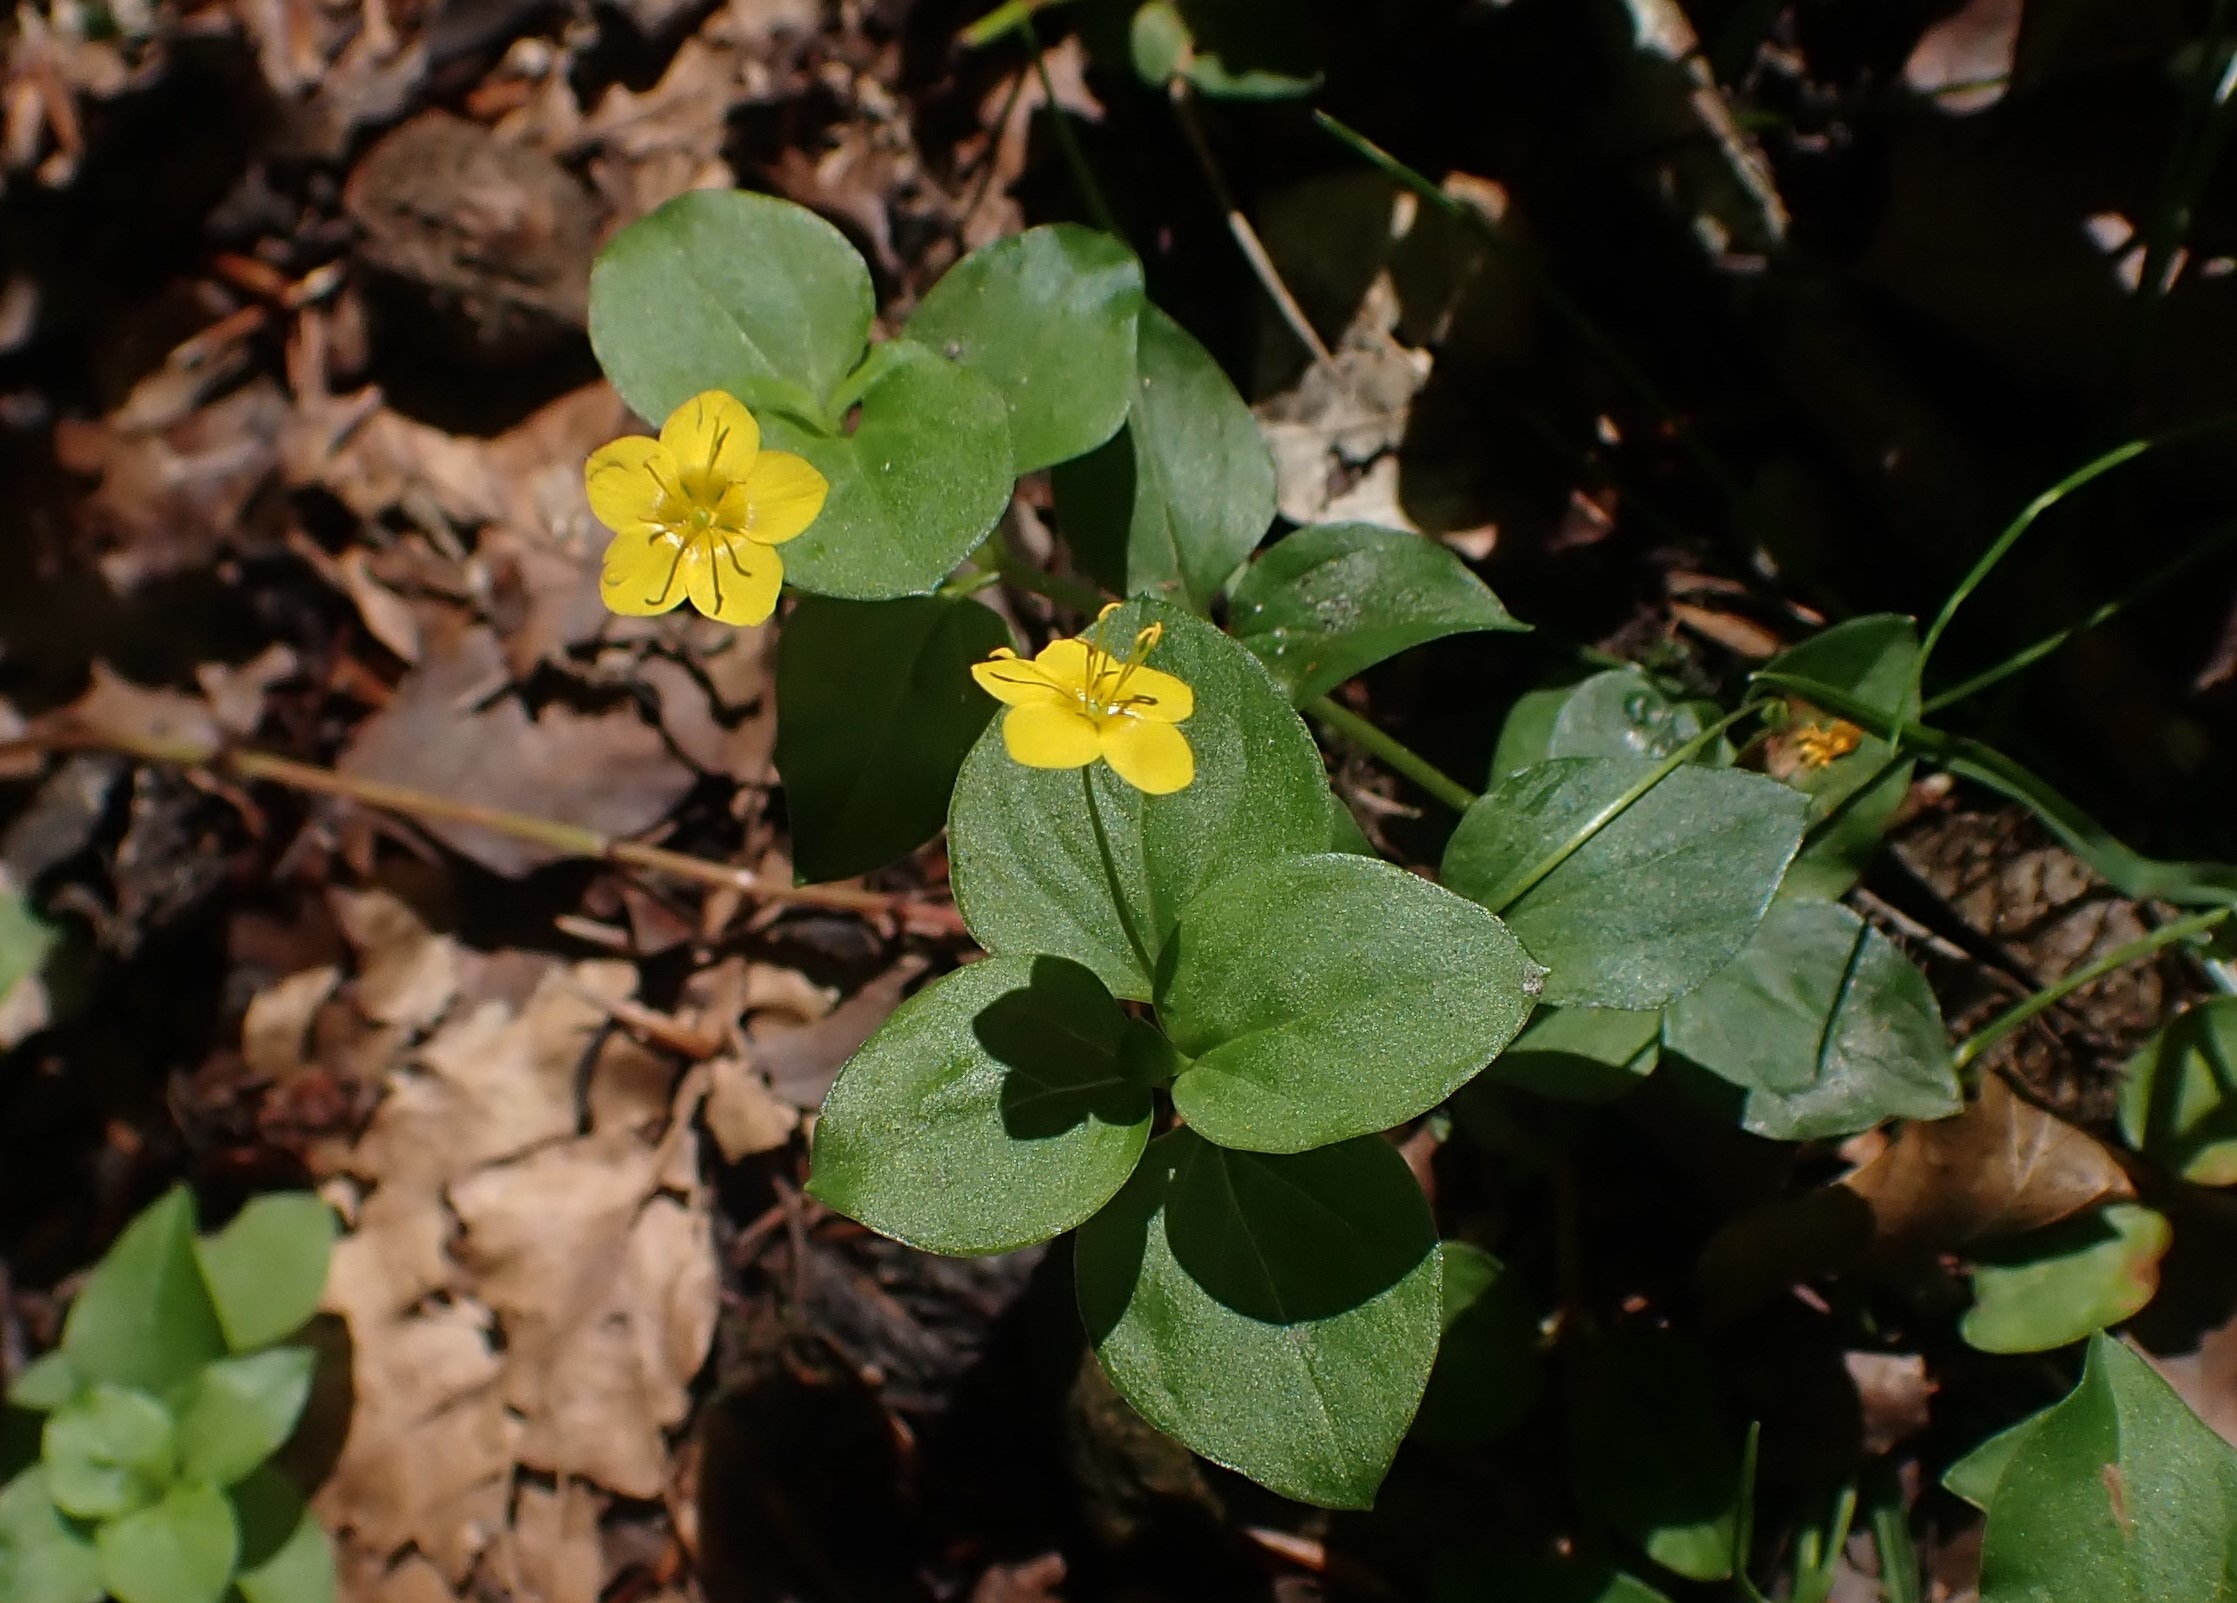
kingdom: Plantae
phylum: Tracheophyta
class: Magnoliopsida
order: Ericales
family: Primulaceae
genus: Lysimachia
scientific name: Lysimachia nemorum
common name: Lund-fredløs
